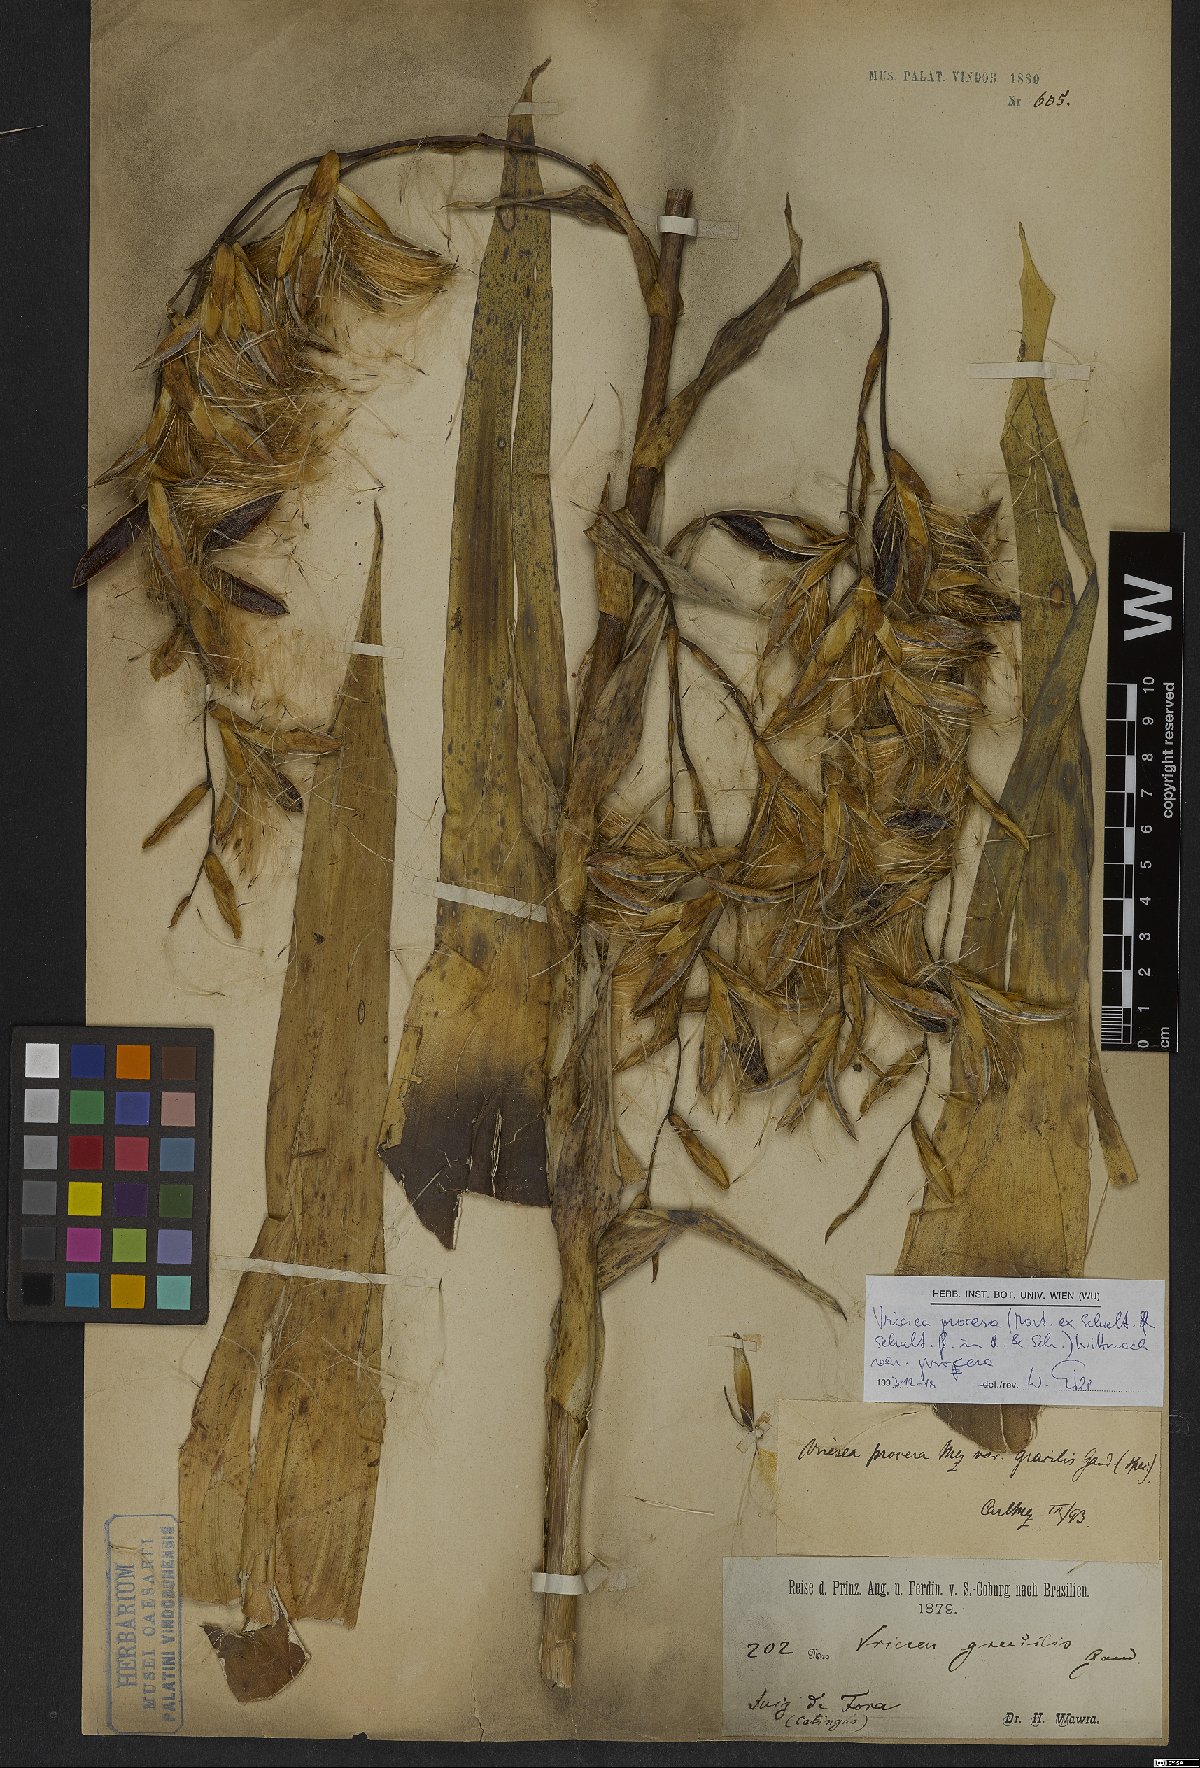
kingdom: Plantae
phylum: Tracheophyta
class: Liliopsida
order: Poales
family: Bromeliaceae
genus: Vriesea
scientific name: Vriesea procera
